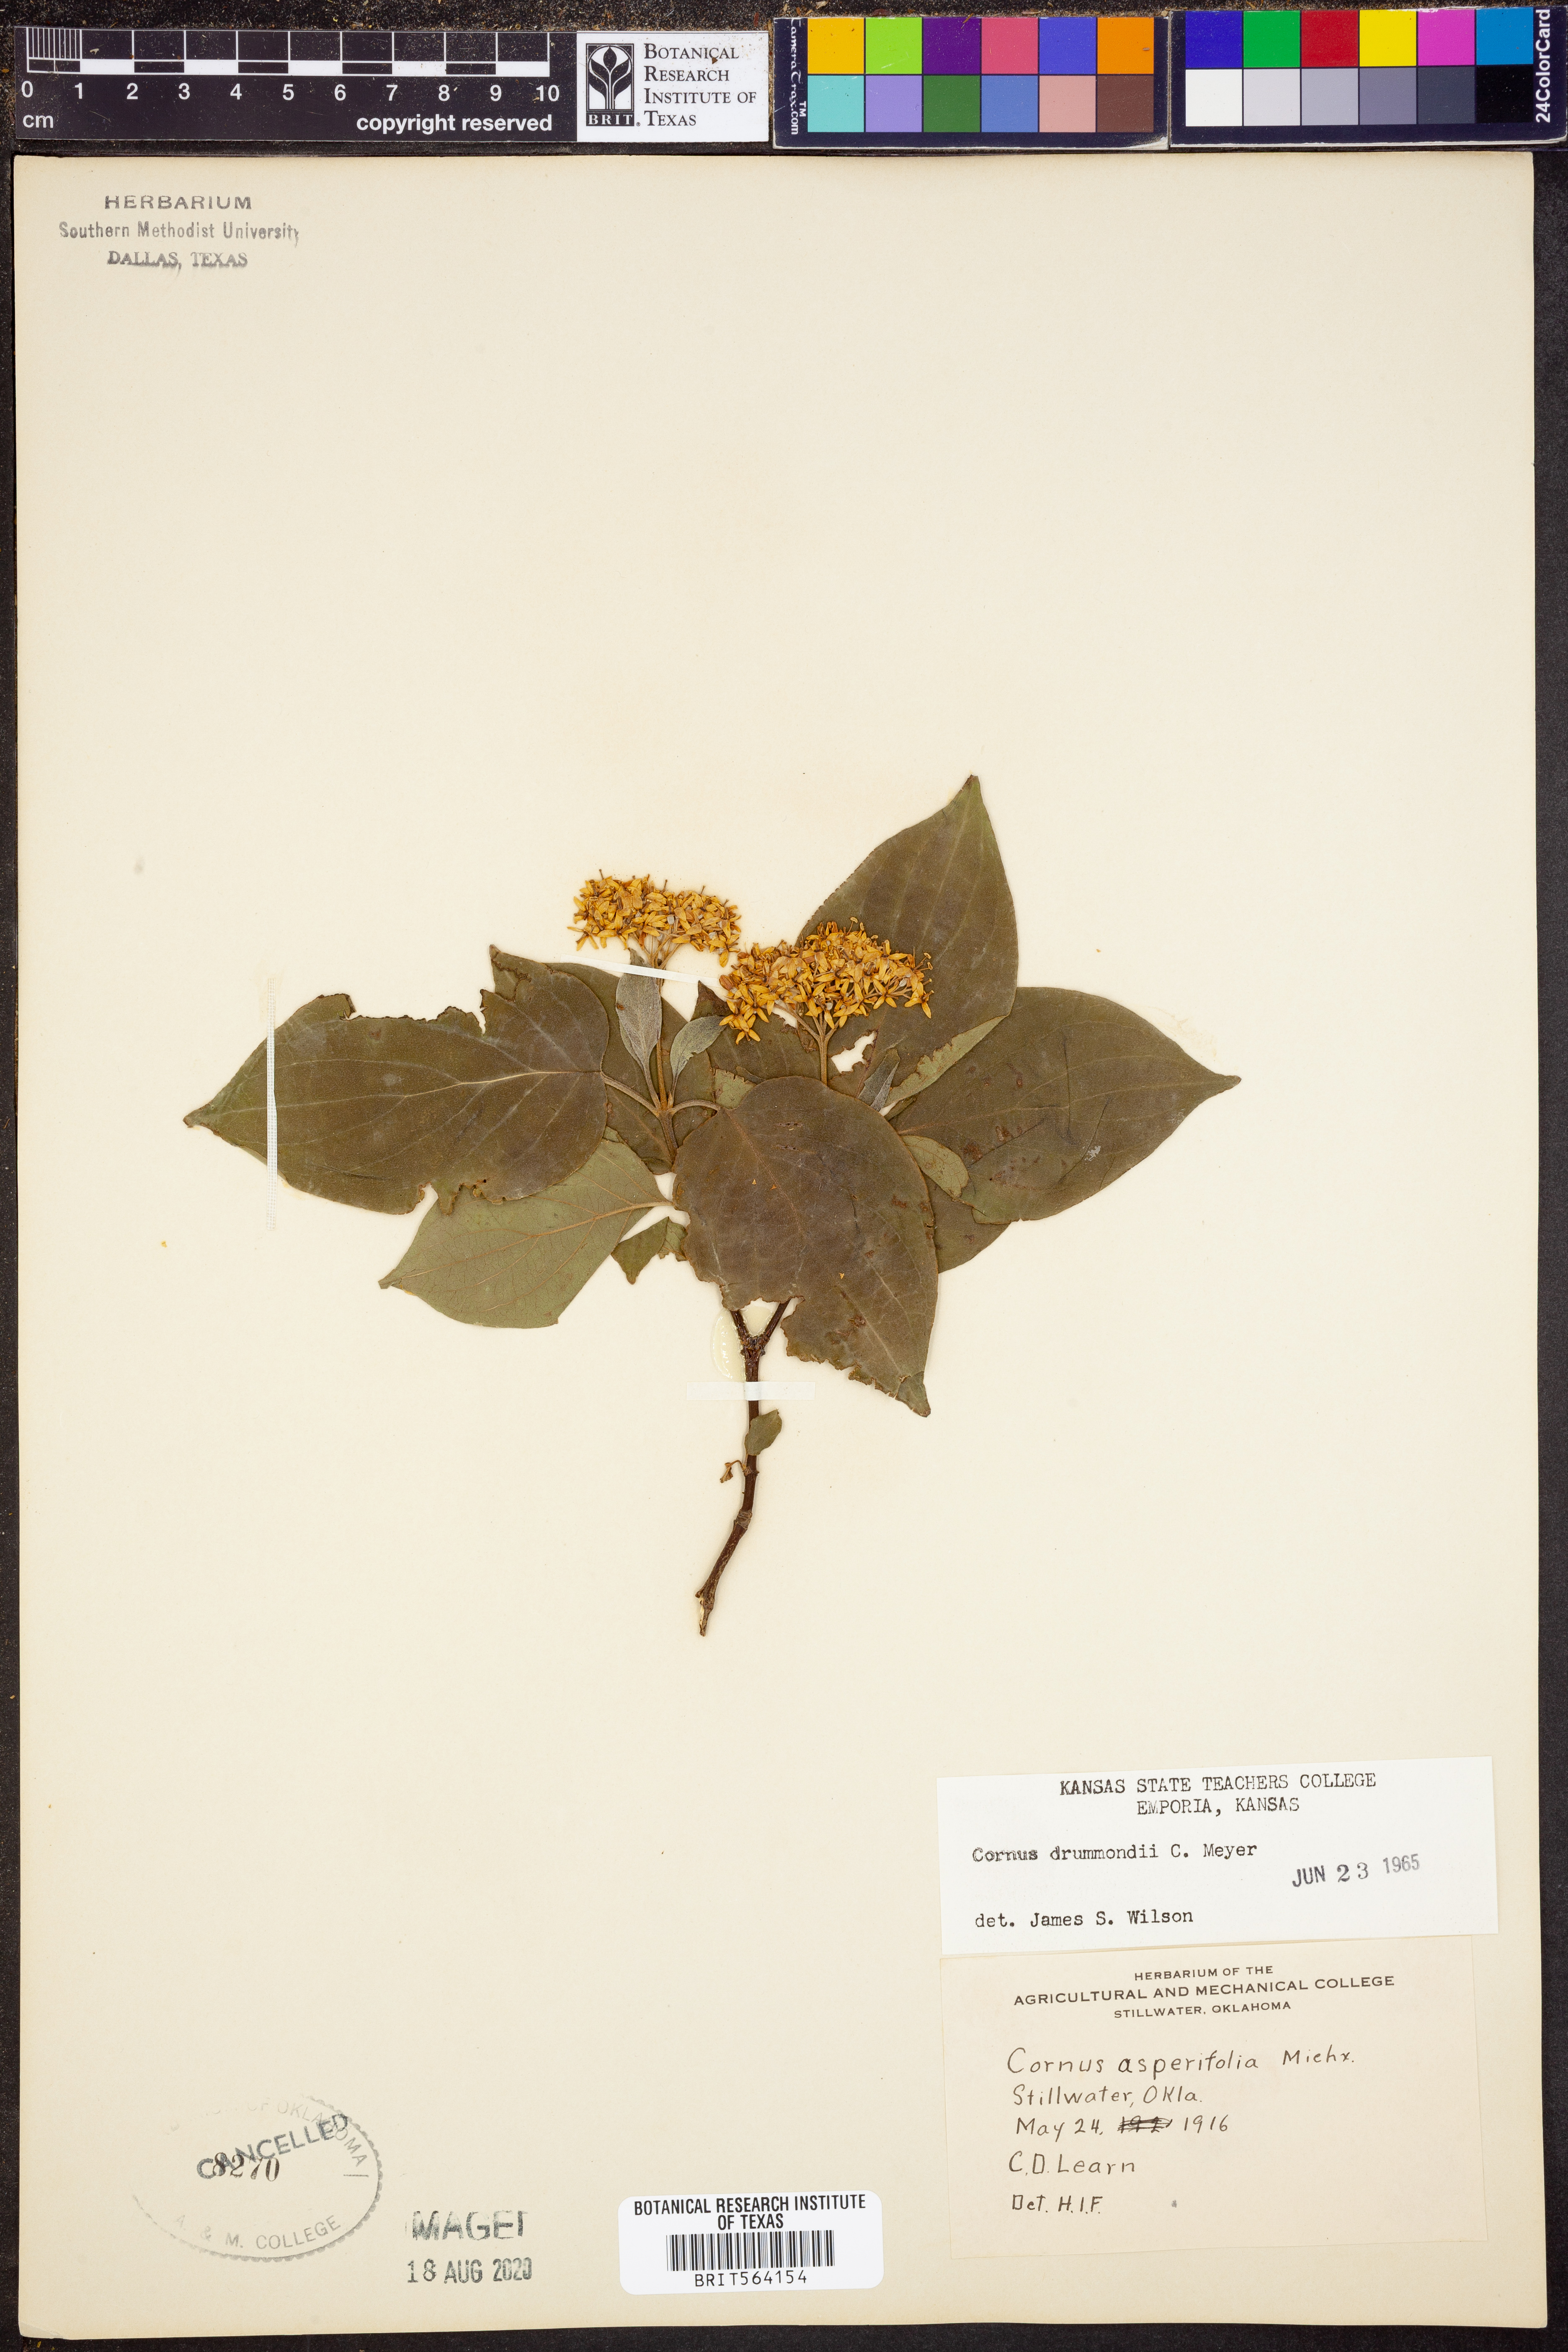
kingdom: Plantae
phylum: Tracheophyta
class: Magnoliopsida
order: Cornales
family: Cornaceae
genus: Cornus
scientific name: Cornus drummondii
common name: Rough-leaf dogwood
